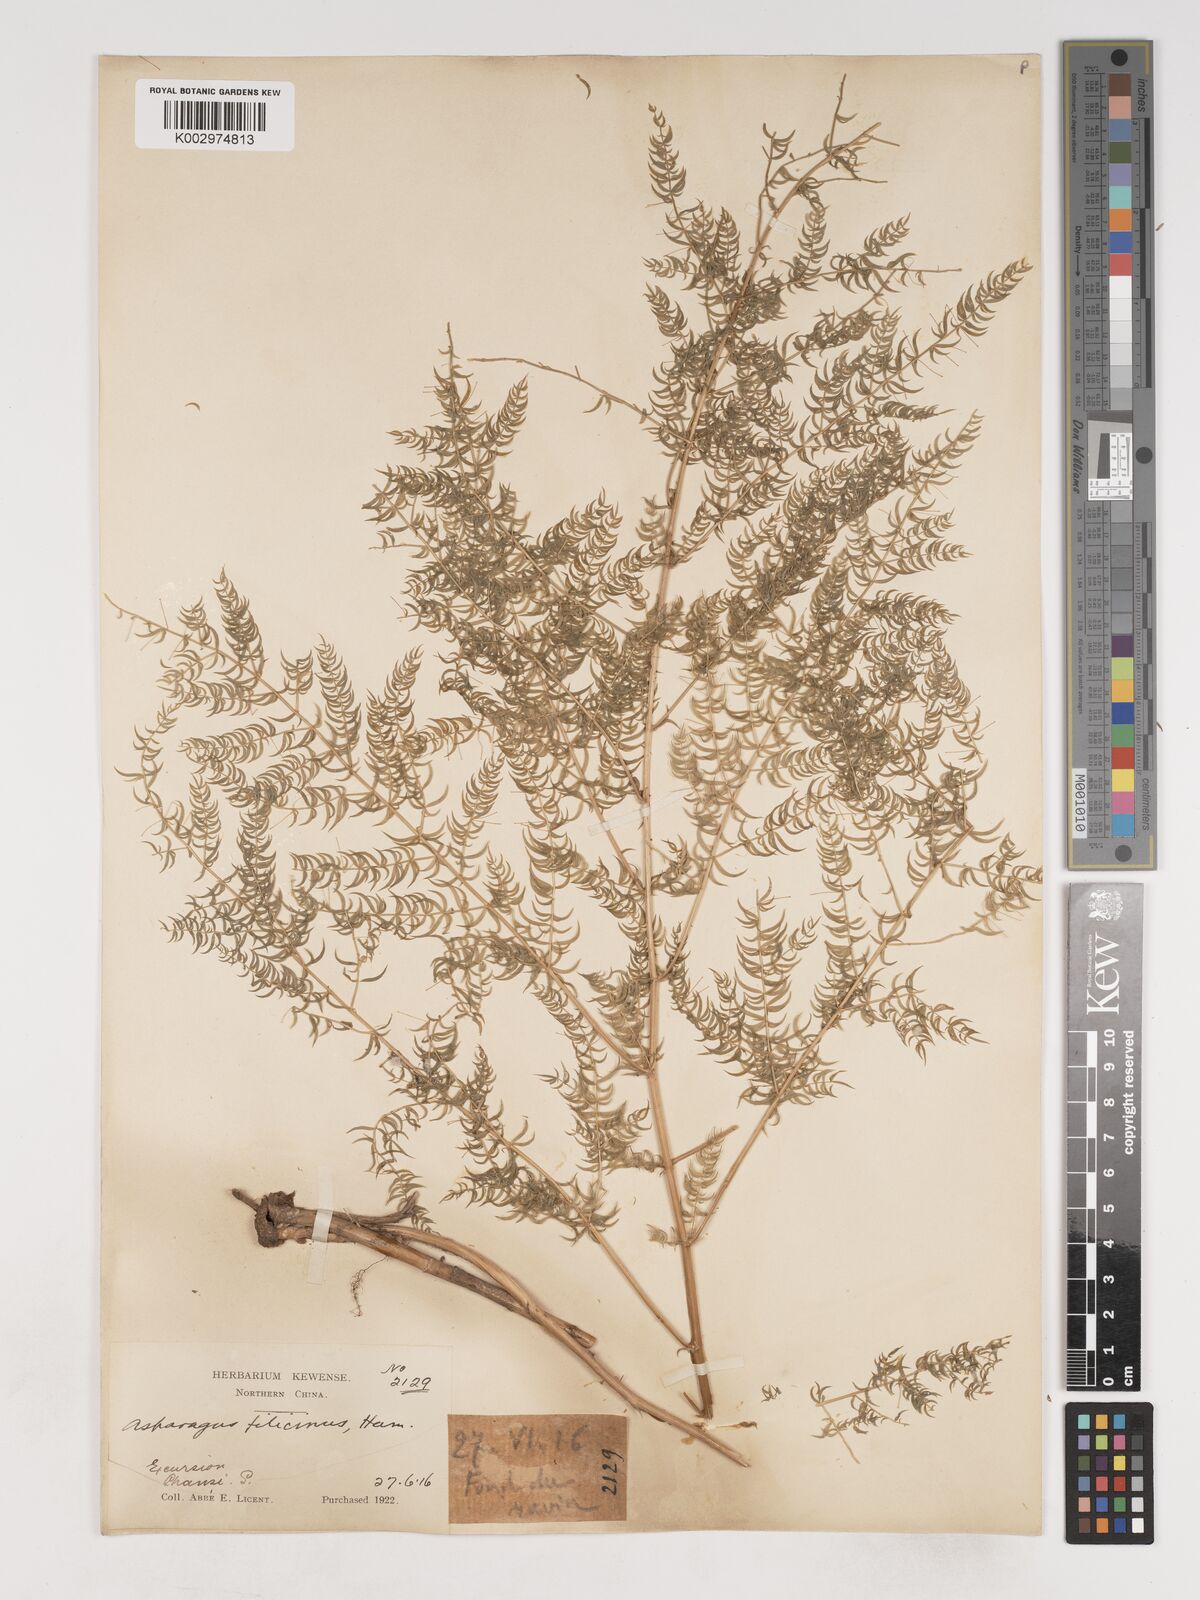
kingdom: Plantae
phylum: Tracheophyta
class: Liliopsida
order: Asparagales
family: Asparagaceae
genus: Asparagus
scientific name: Asparagus filicinus
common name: Fern asparagus
